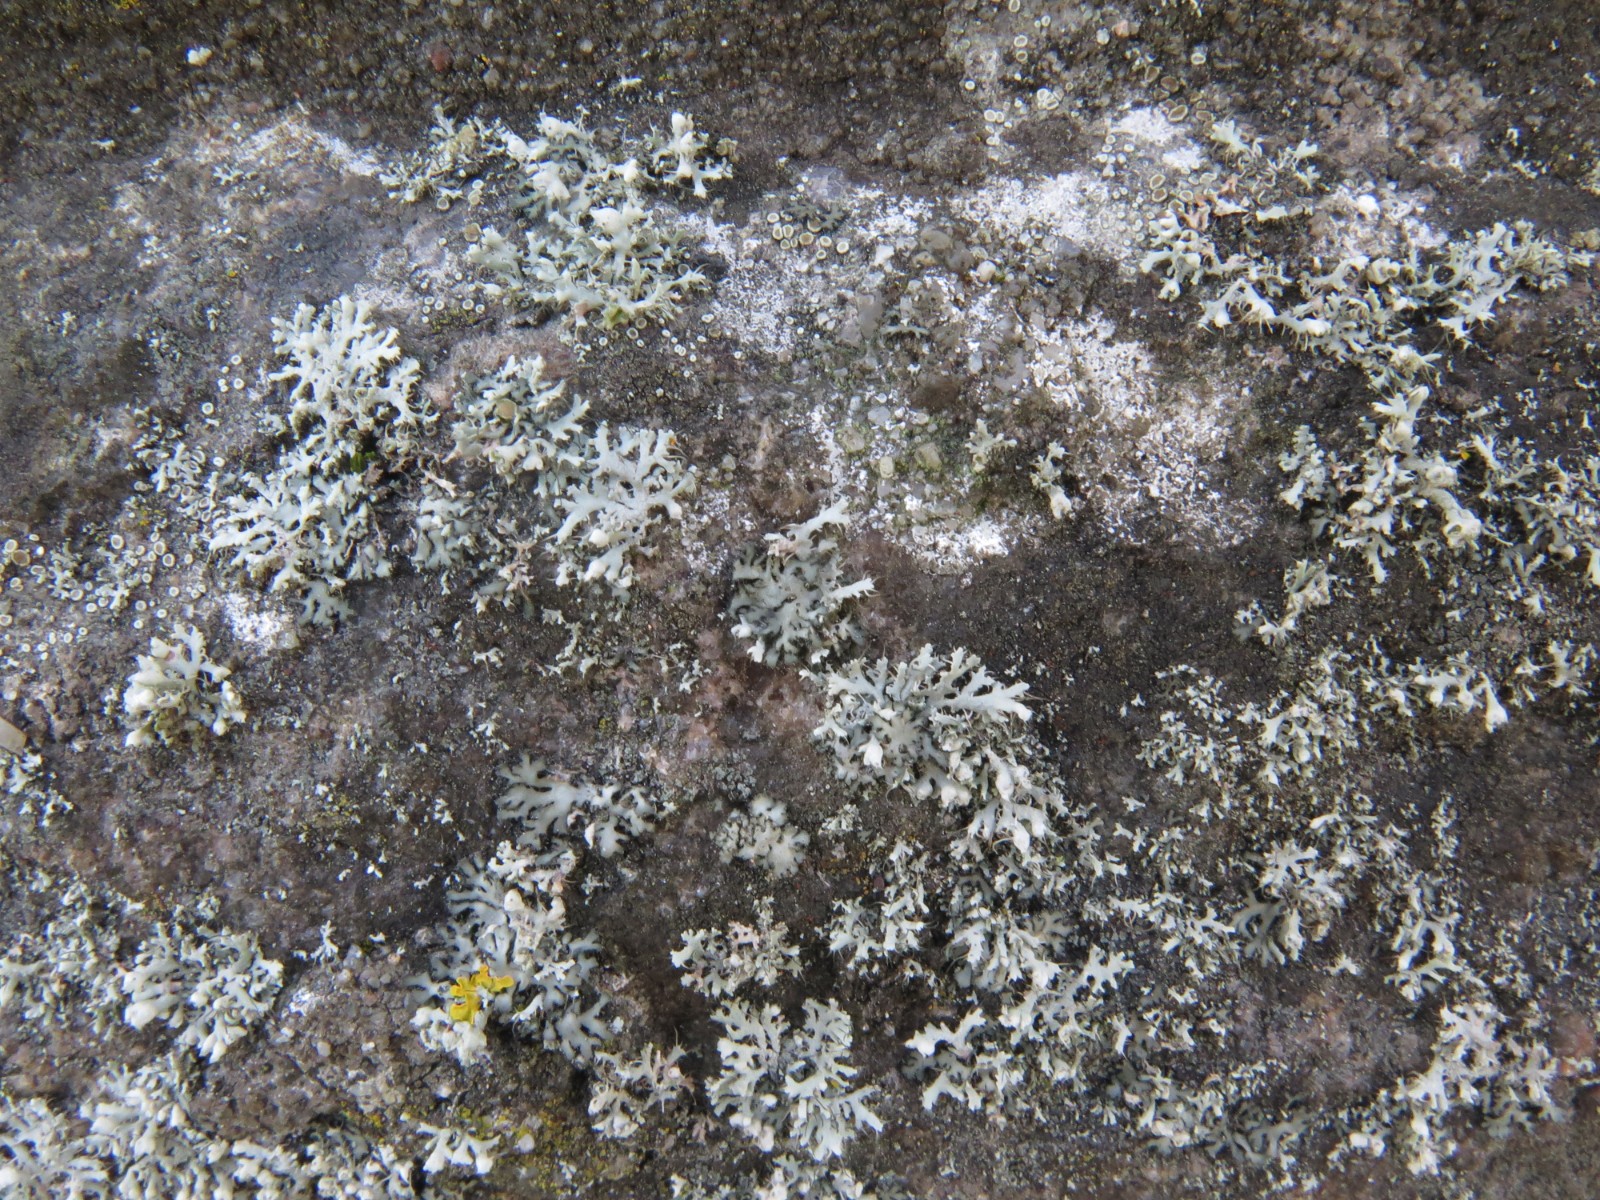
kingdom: Fungi
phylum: Ascomycota
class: Lecanoromycetes
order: Caliciales
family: Physciaceae
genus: Physcia
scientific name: Physcia tenella
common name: spæd rosetlav
